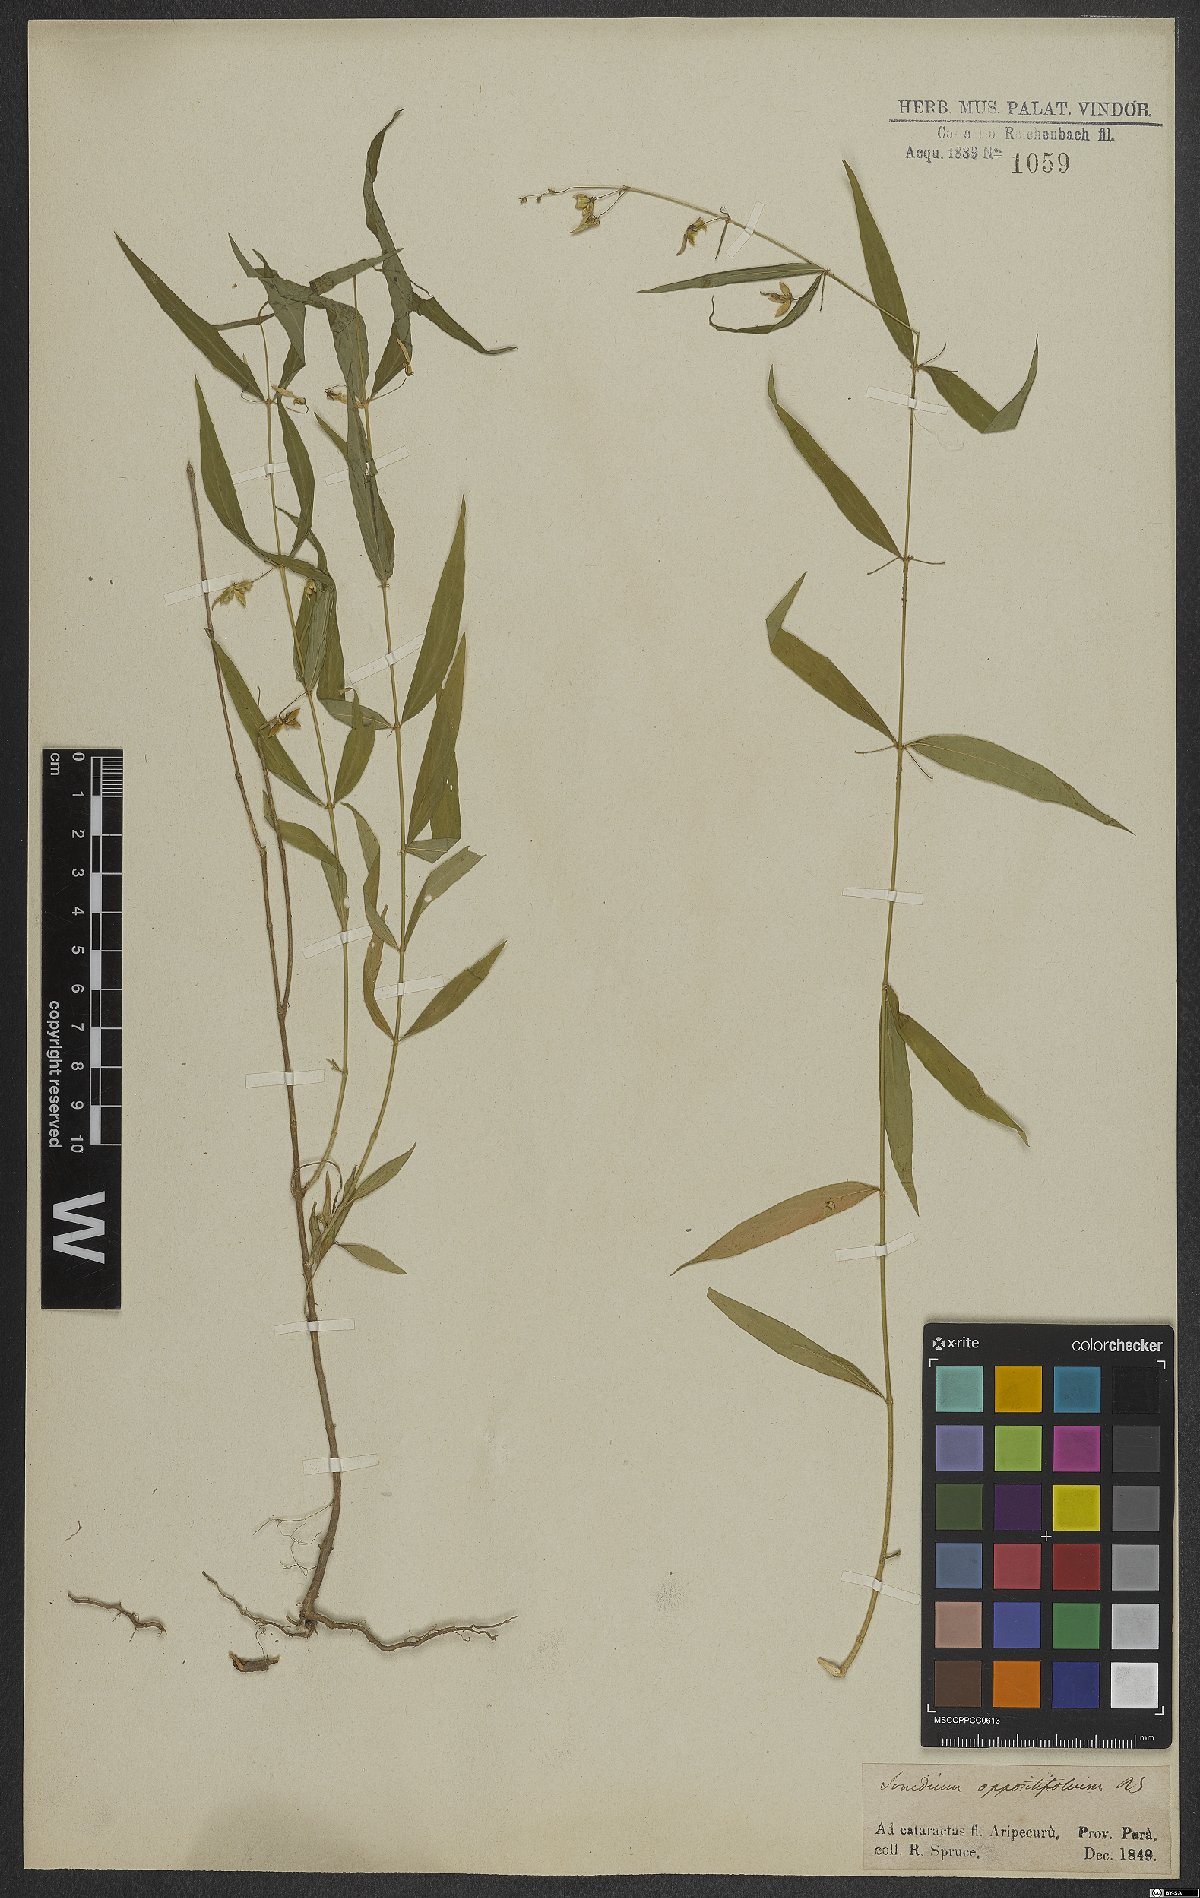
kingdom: Plantae
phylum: Tracheophyta
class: Magnoliopsida
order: Malpighiales
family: Violaceae
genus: Pombalia
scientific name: Pombalia oppositifolia
